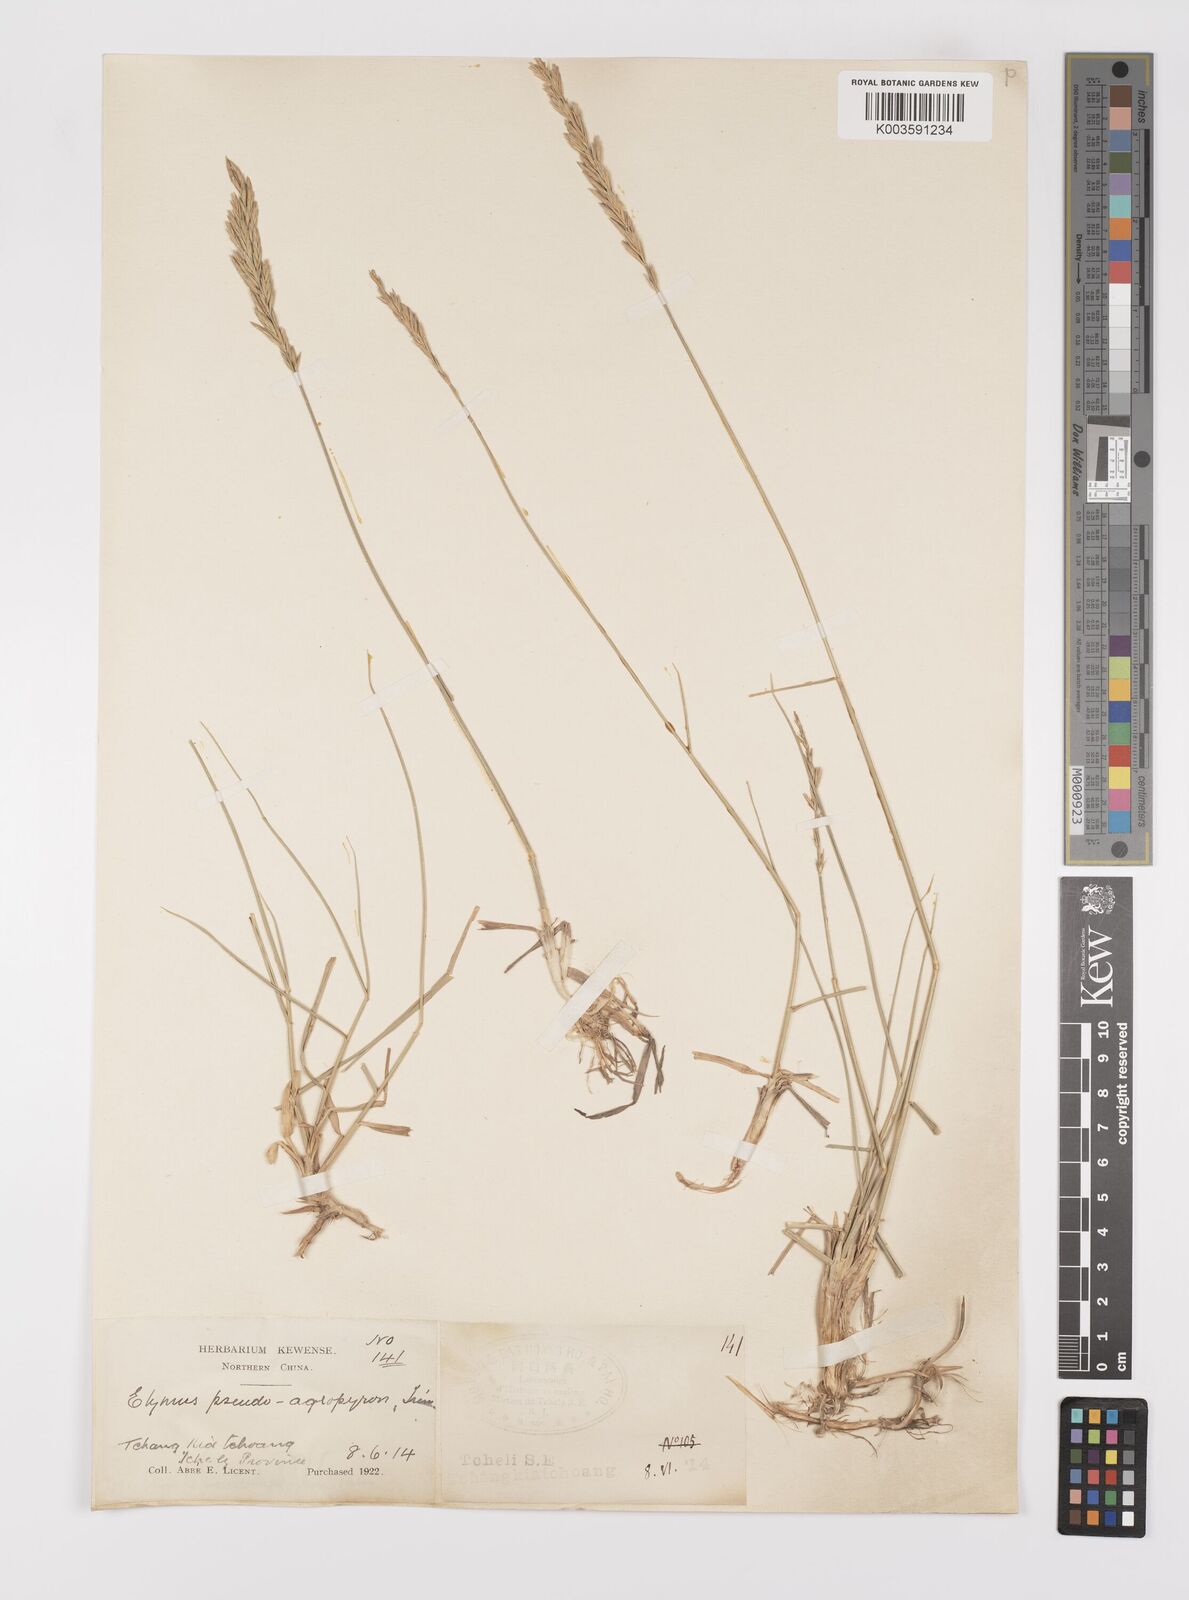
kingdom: Plantae
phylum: Tracheophyta
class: Liliopsida
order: Poales
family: Poaceae
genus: Leymus
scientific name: Leymus chinensis
